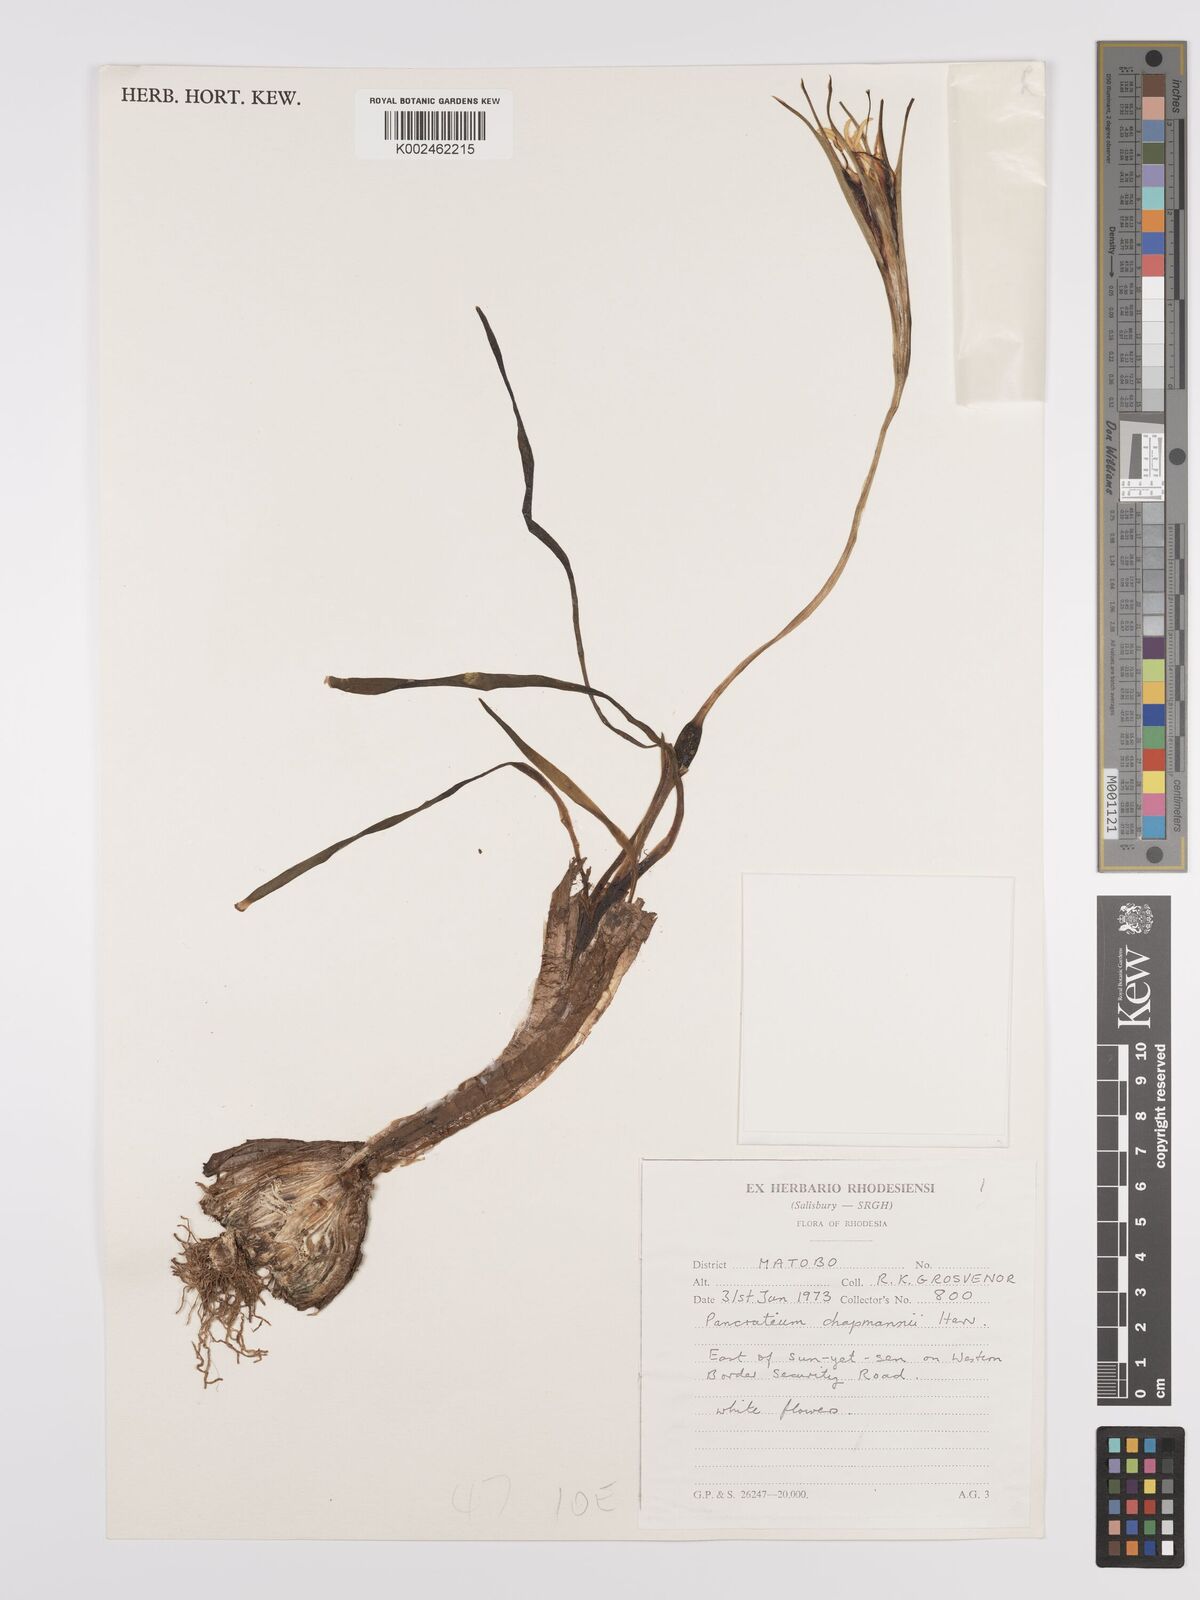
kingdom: Plantae
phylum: Tracheophyta
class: Liliopsida
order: Asparagales
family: Amaryllidaceae
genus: Pancratium
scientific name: Pancratium tenuifolium
